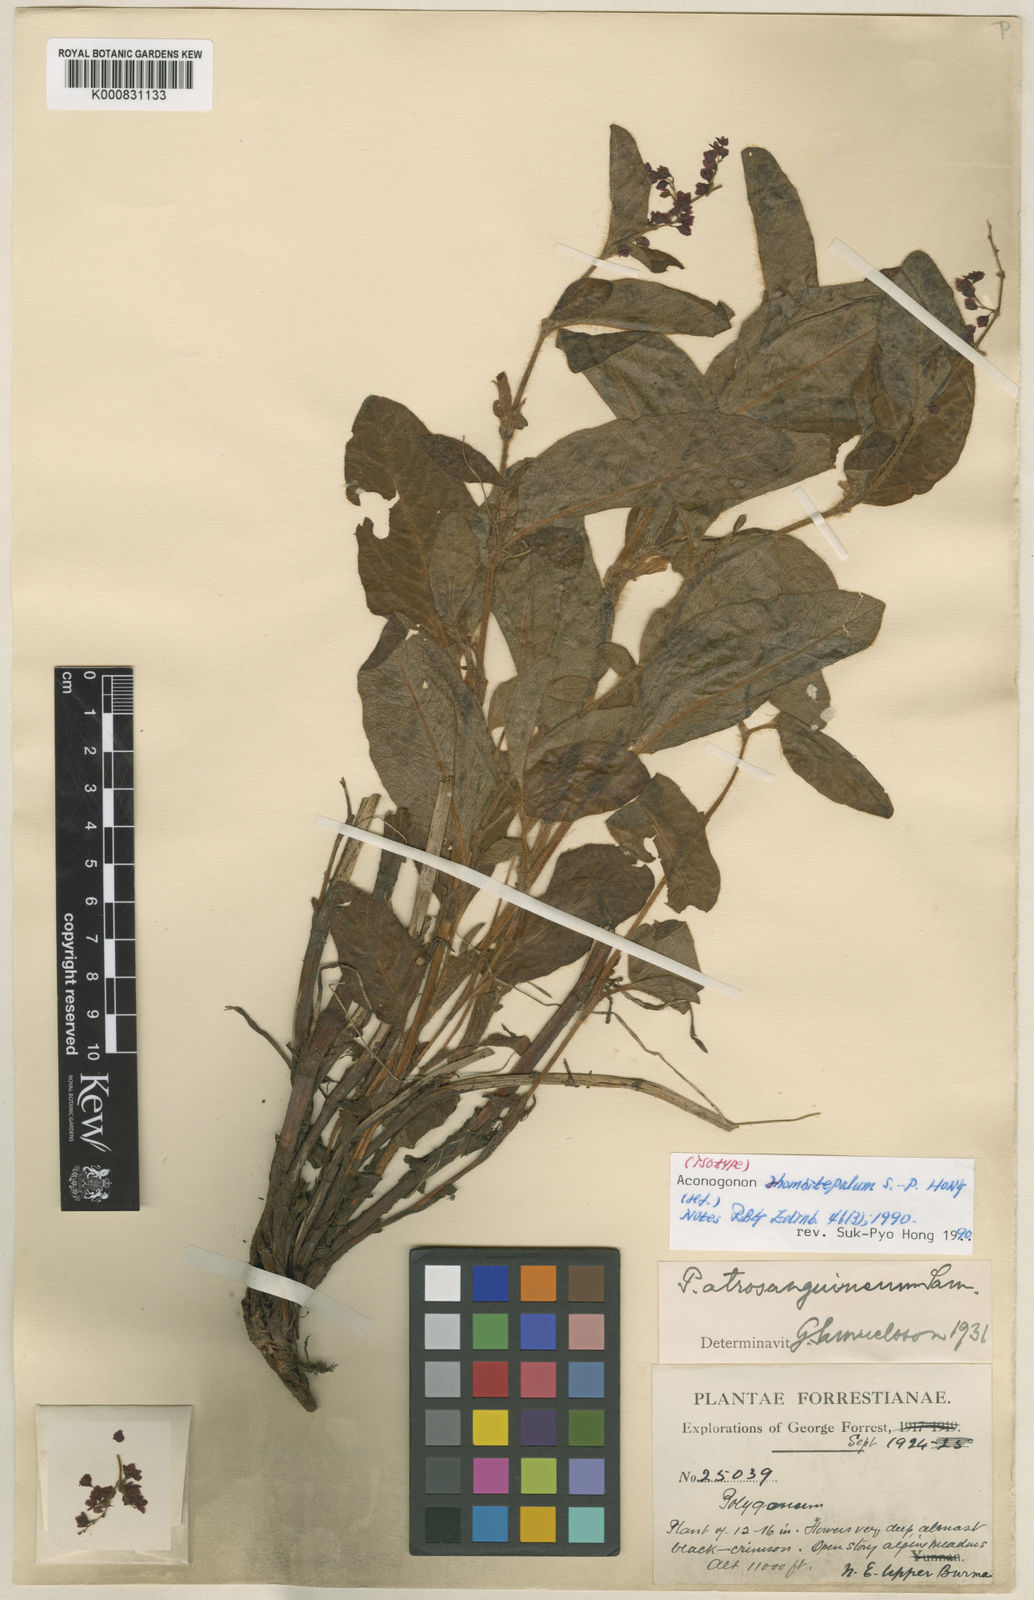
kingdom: Plantae
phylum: Tracheophyta
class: Magnoliopsida
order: Caryophyllales
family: Polygonaceae
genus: Persicaria
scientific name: Persicaria
